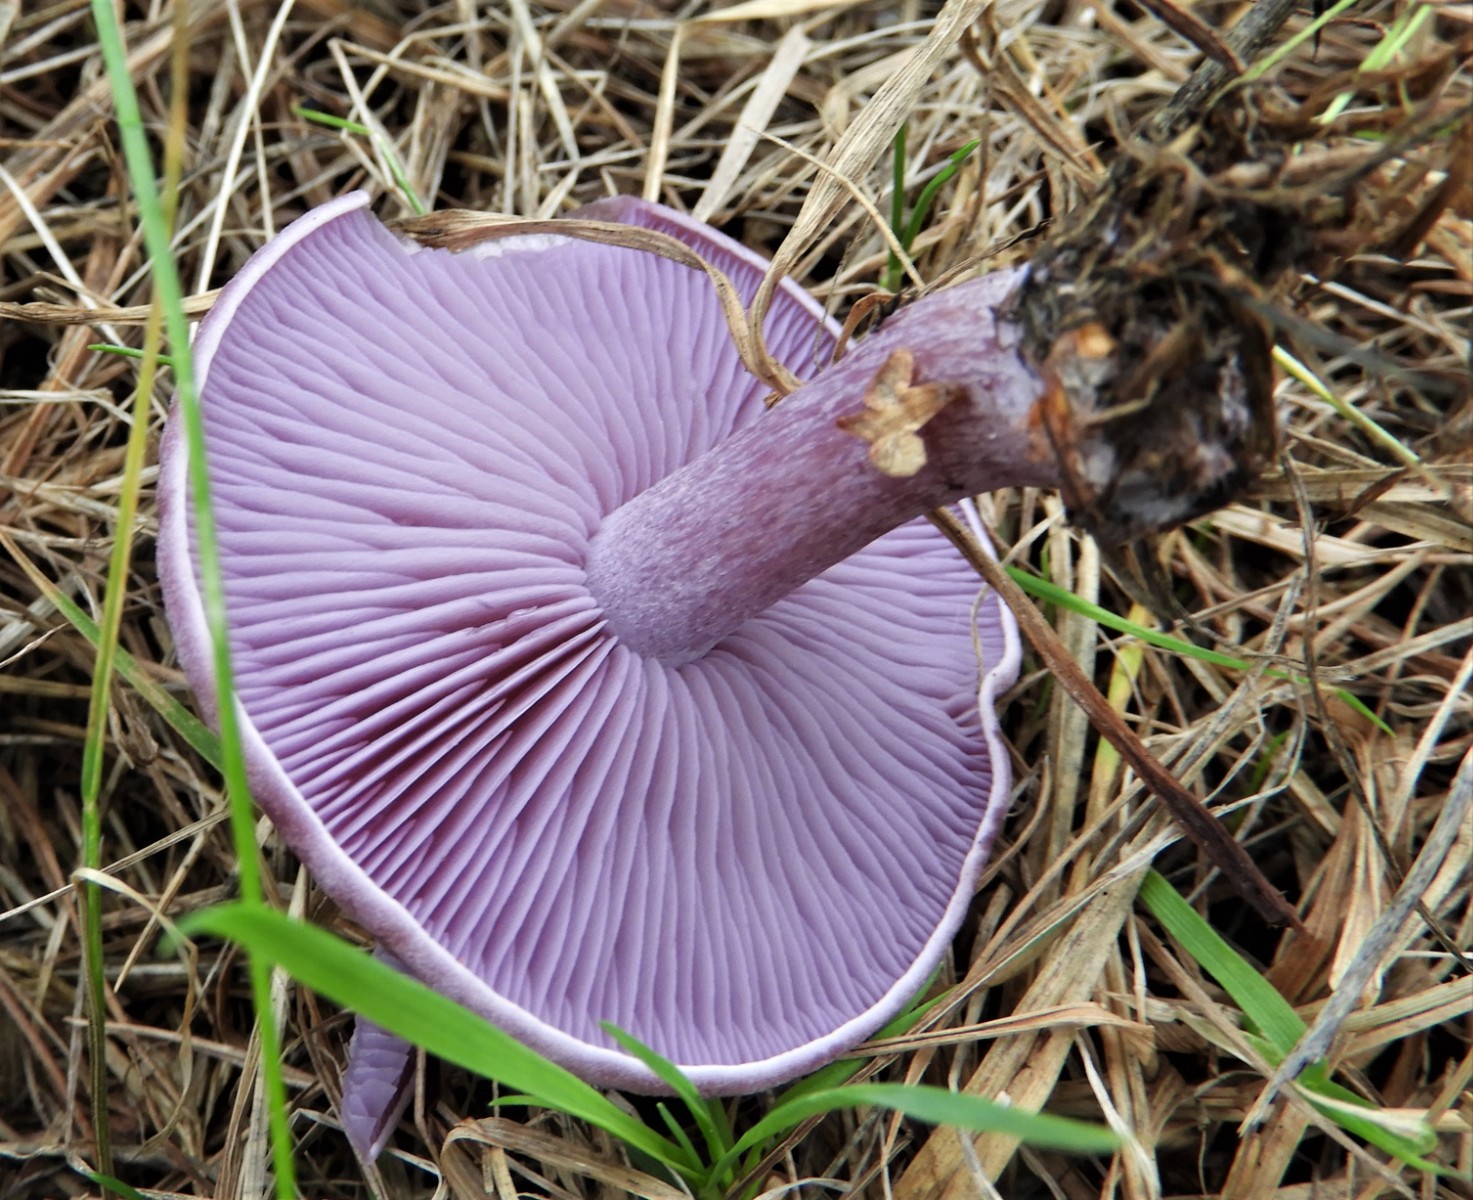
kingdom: Fungi
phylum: Basidiomycota
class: Agaricomycetes
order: Agaricales
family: Tricholomataceae
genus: Lepista
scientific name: Lepista lilacea
